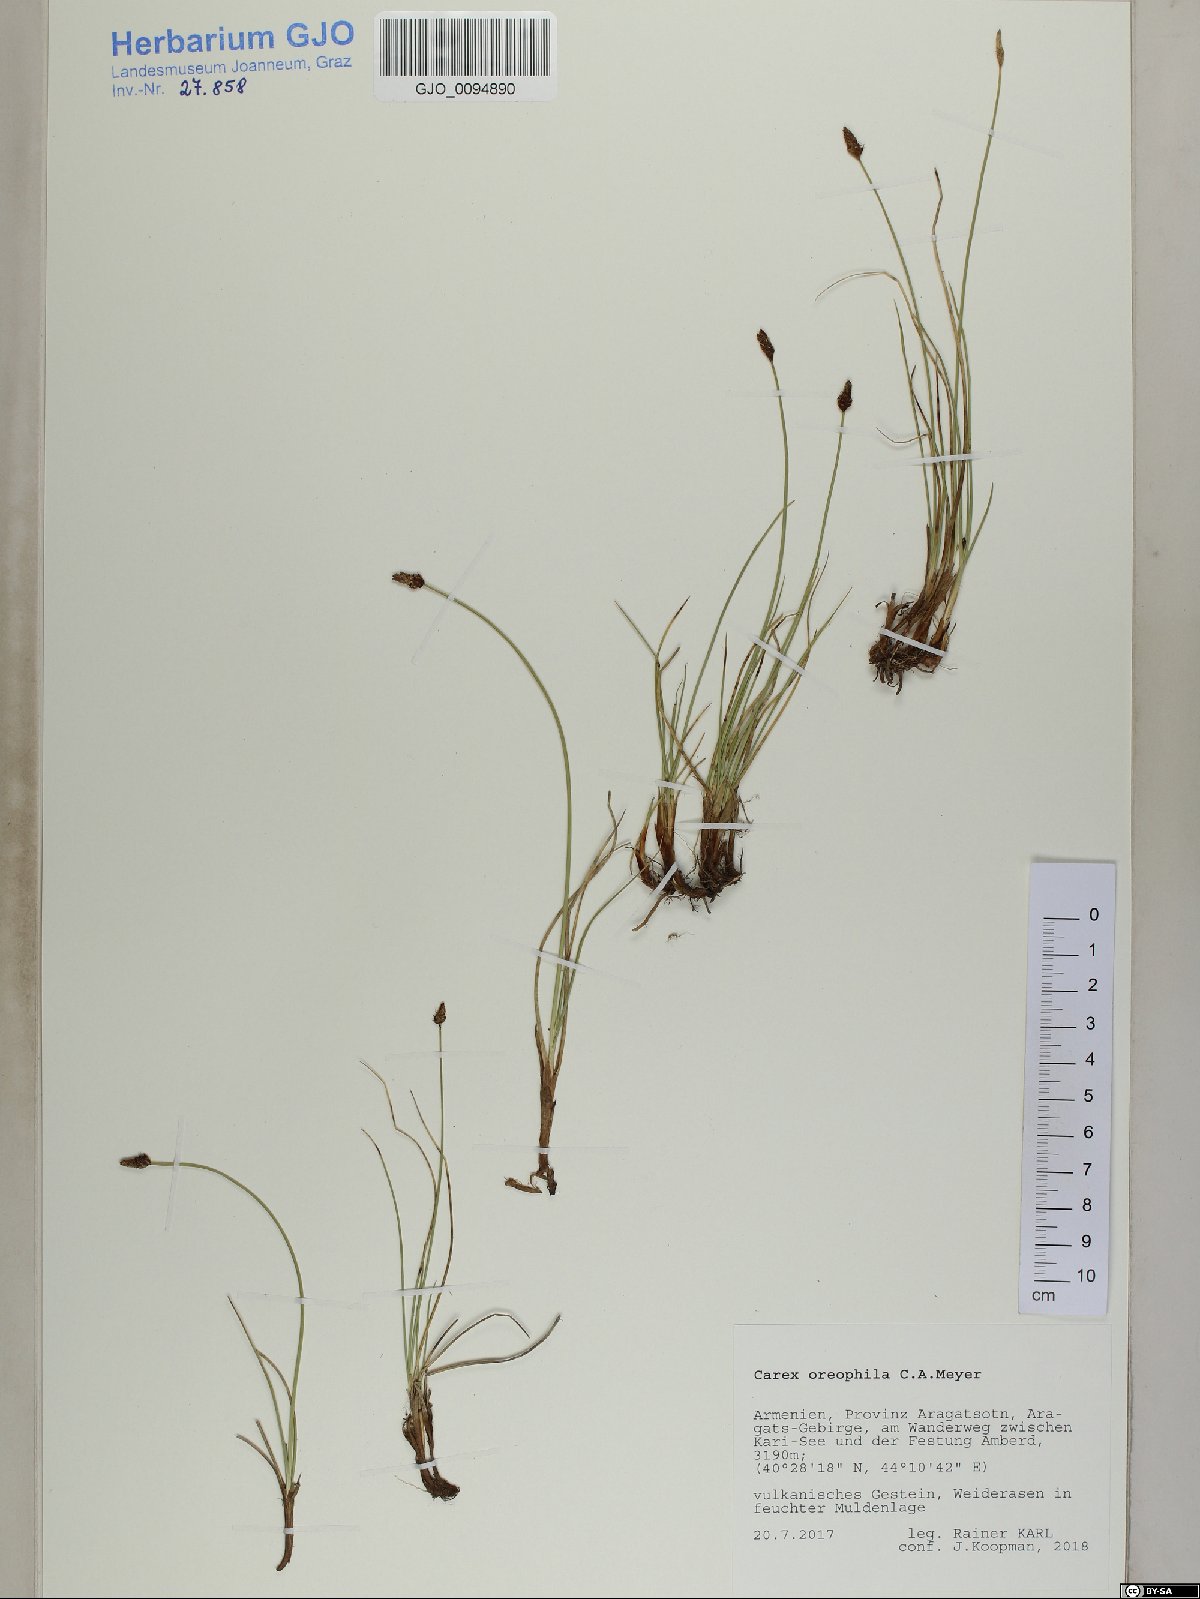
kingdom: Plantae
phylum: Tracheophyta
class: Liliopsida
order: Poales
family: Cyperaceae
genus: Carex
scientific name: Carex oreophila
